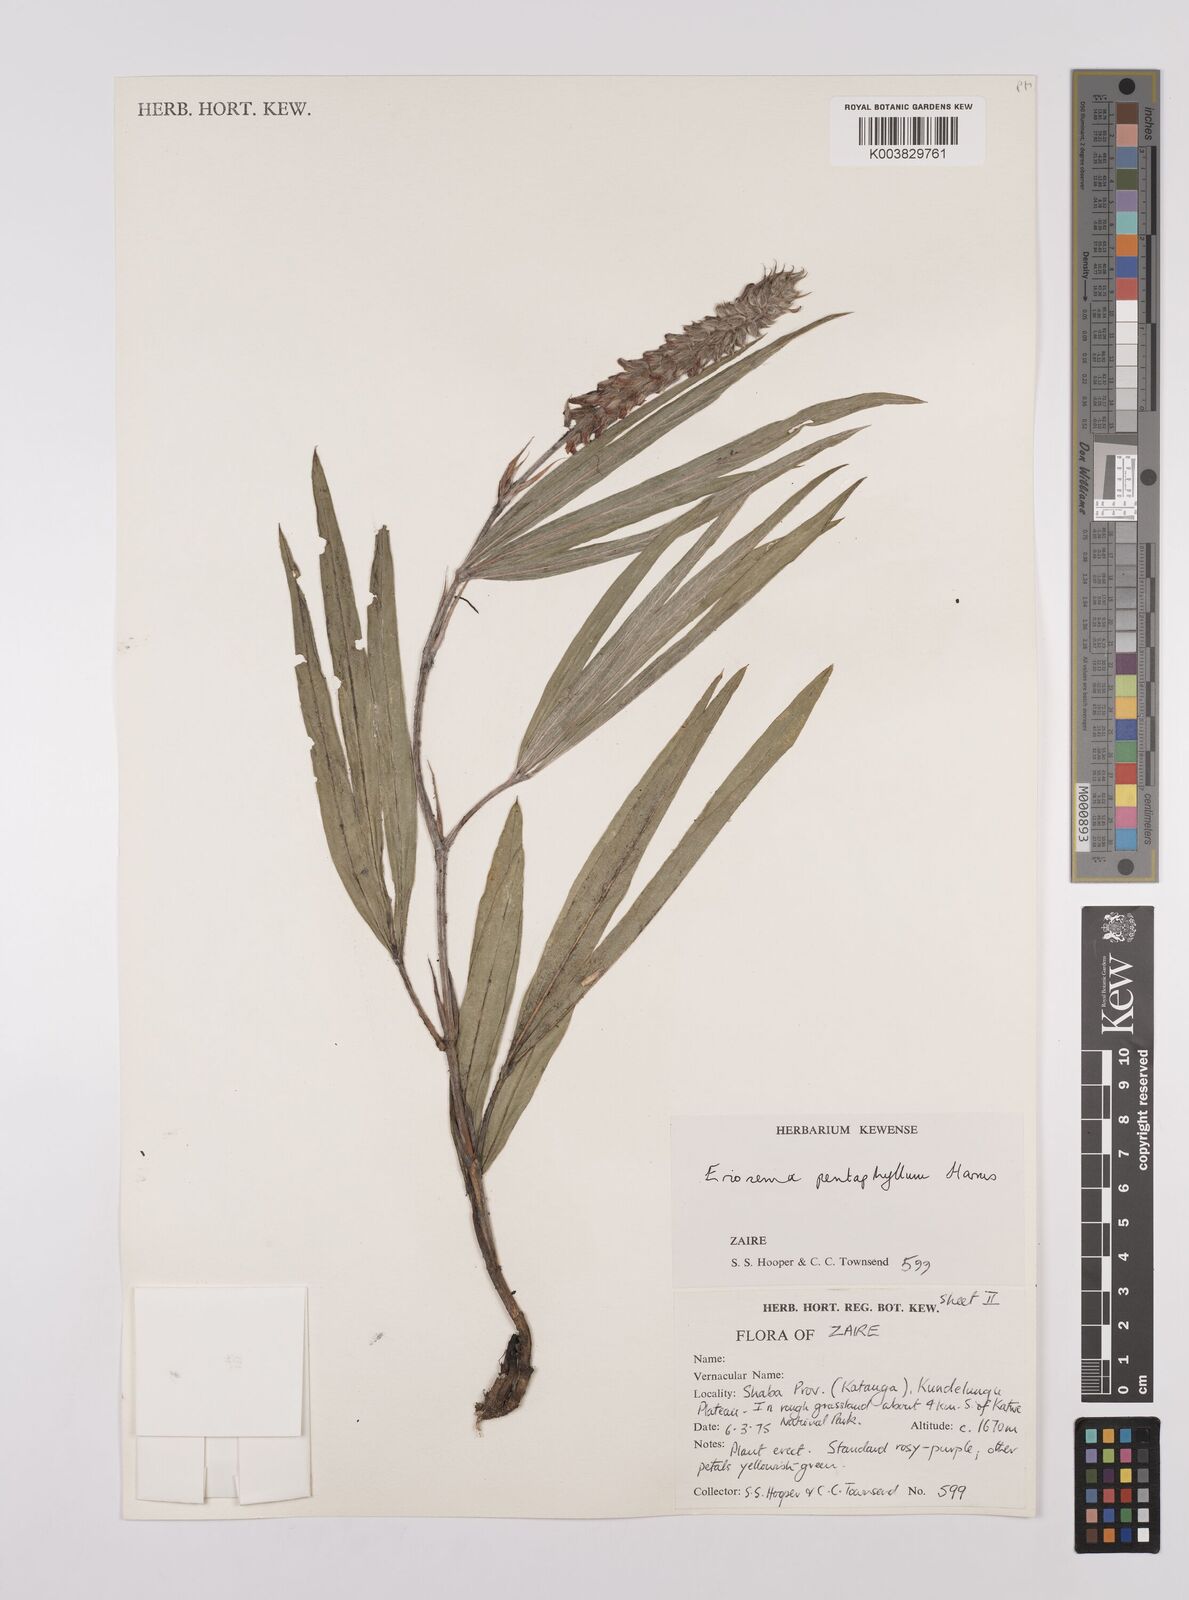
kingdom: Plantae
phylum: Tracheophyta
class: Magnoliopsida
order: Fabales
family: Fabaceae
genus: Eriosema
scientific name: Eriosema pentaphyllum
